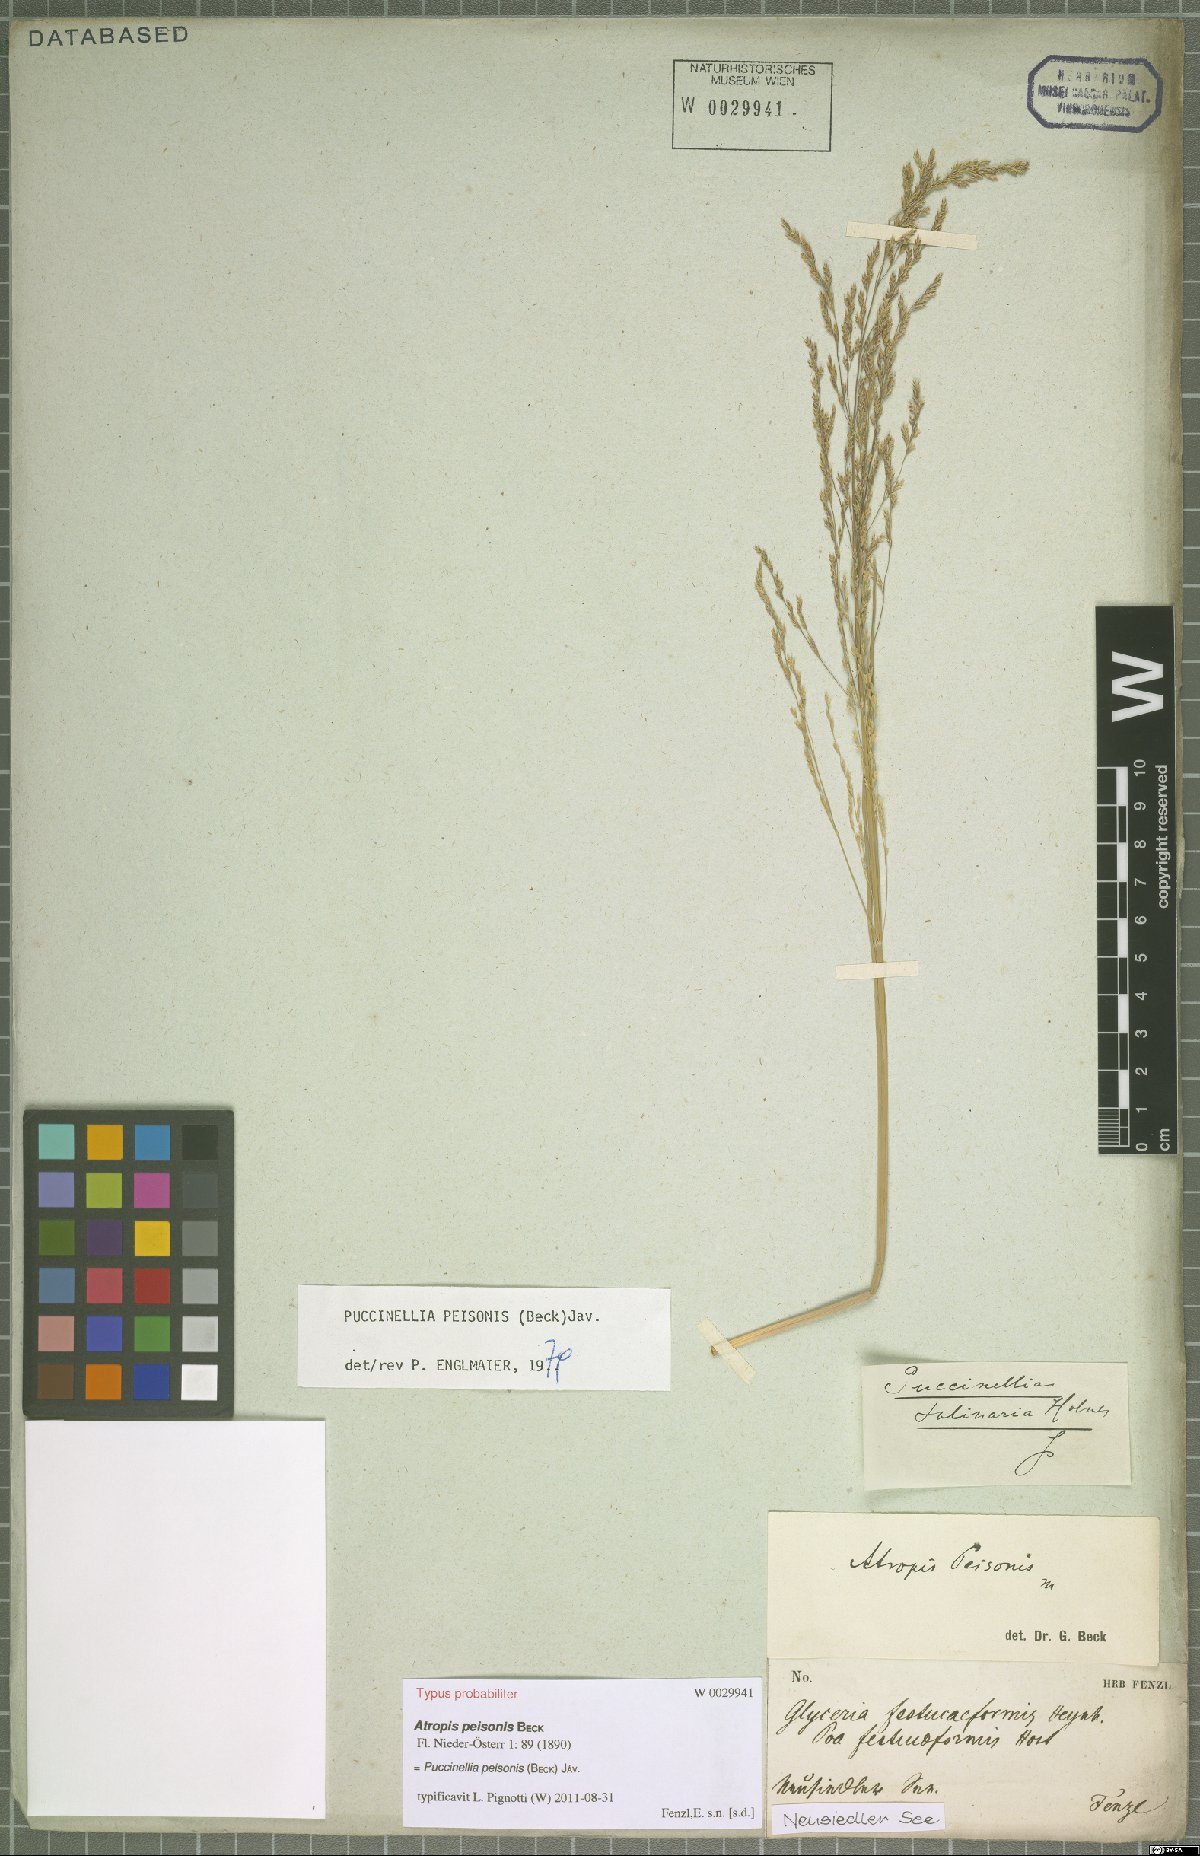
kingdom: Plantae
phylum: Tracheophyta
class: Liliopsida
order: Poales
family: Poaceae
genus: Puccinellia
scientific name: Puccinellia intermedia
